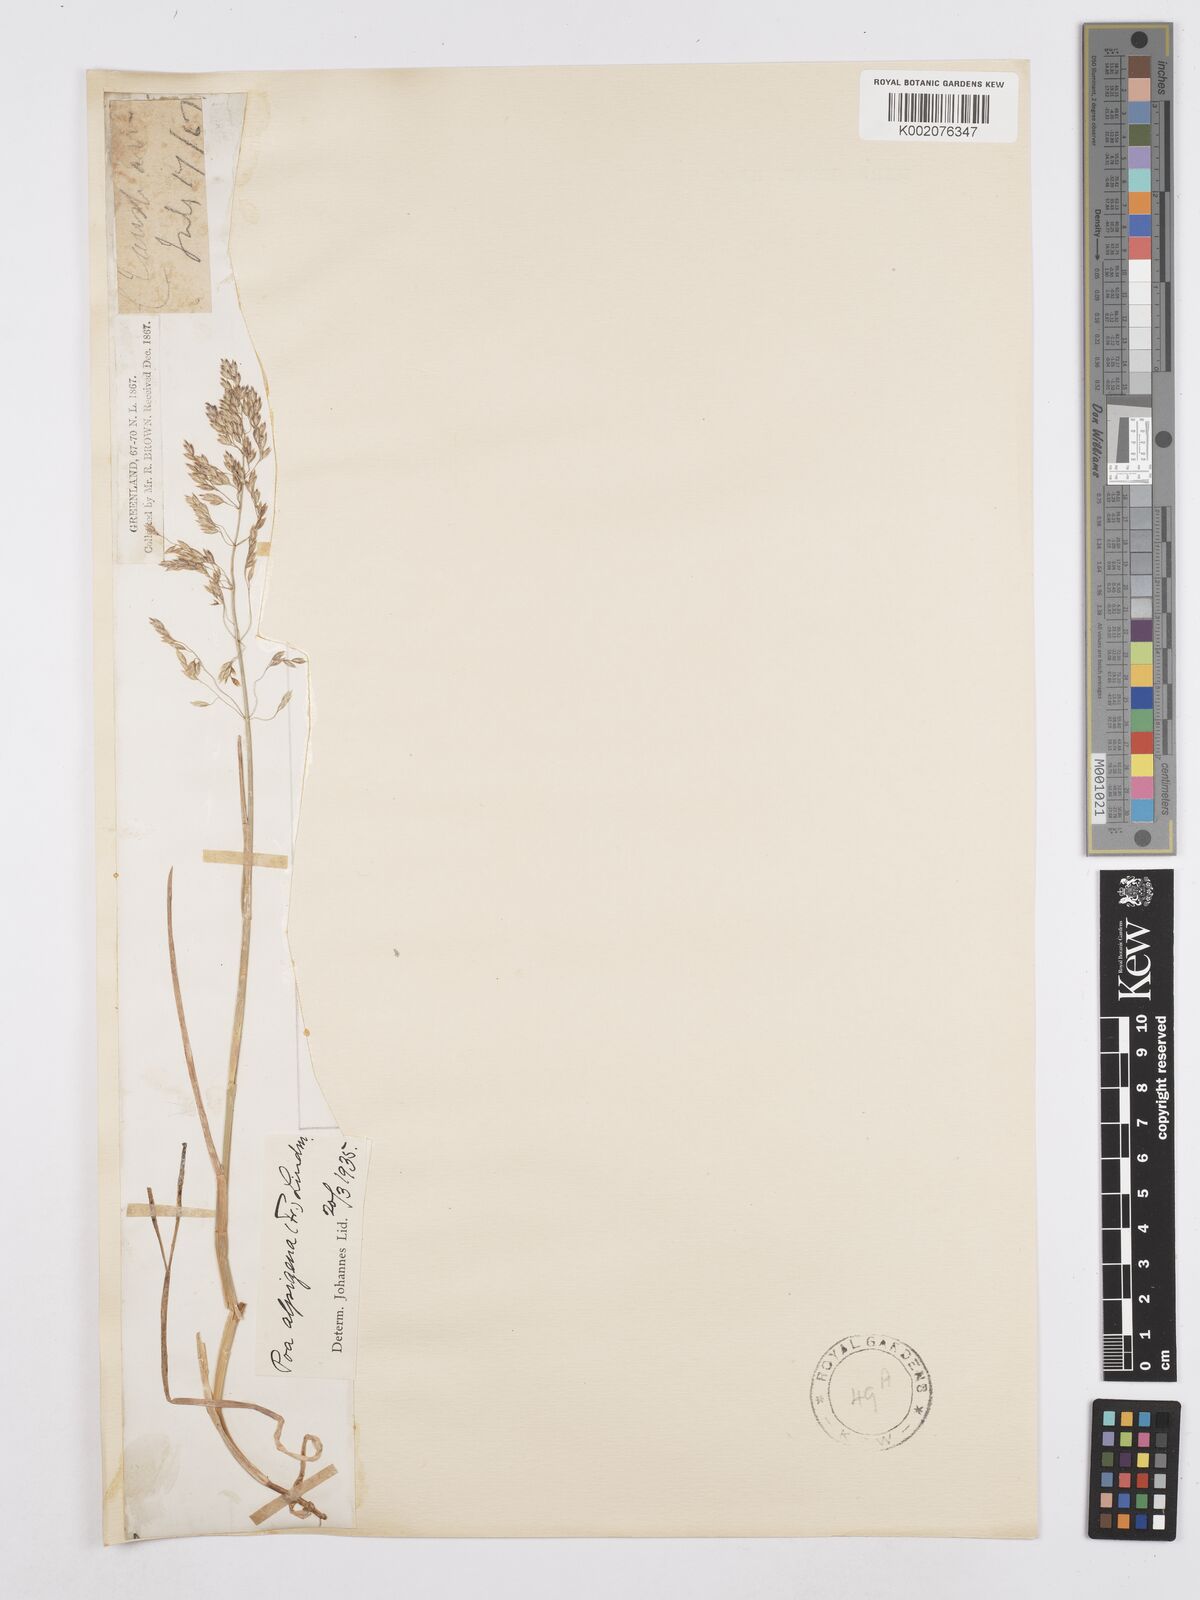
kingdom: Plantae
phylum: Tracheophyta
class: Liliopsida
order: Poales
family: Poaceae
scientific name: Poaceae
